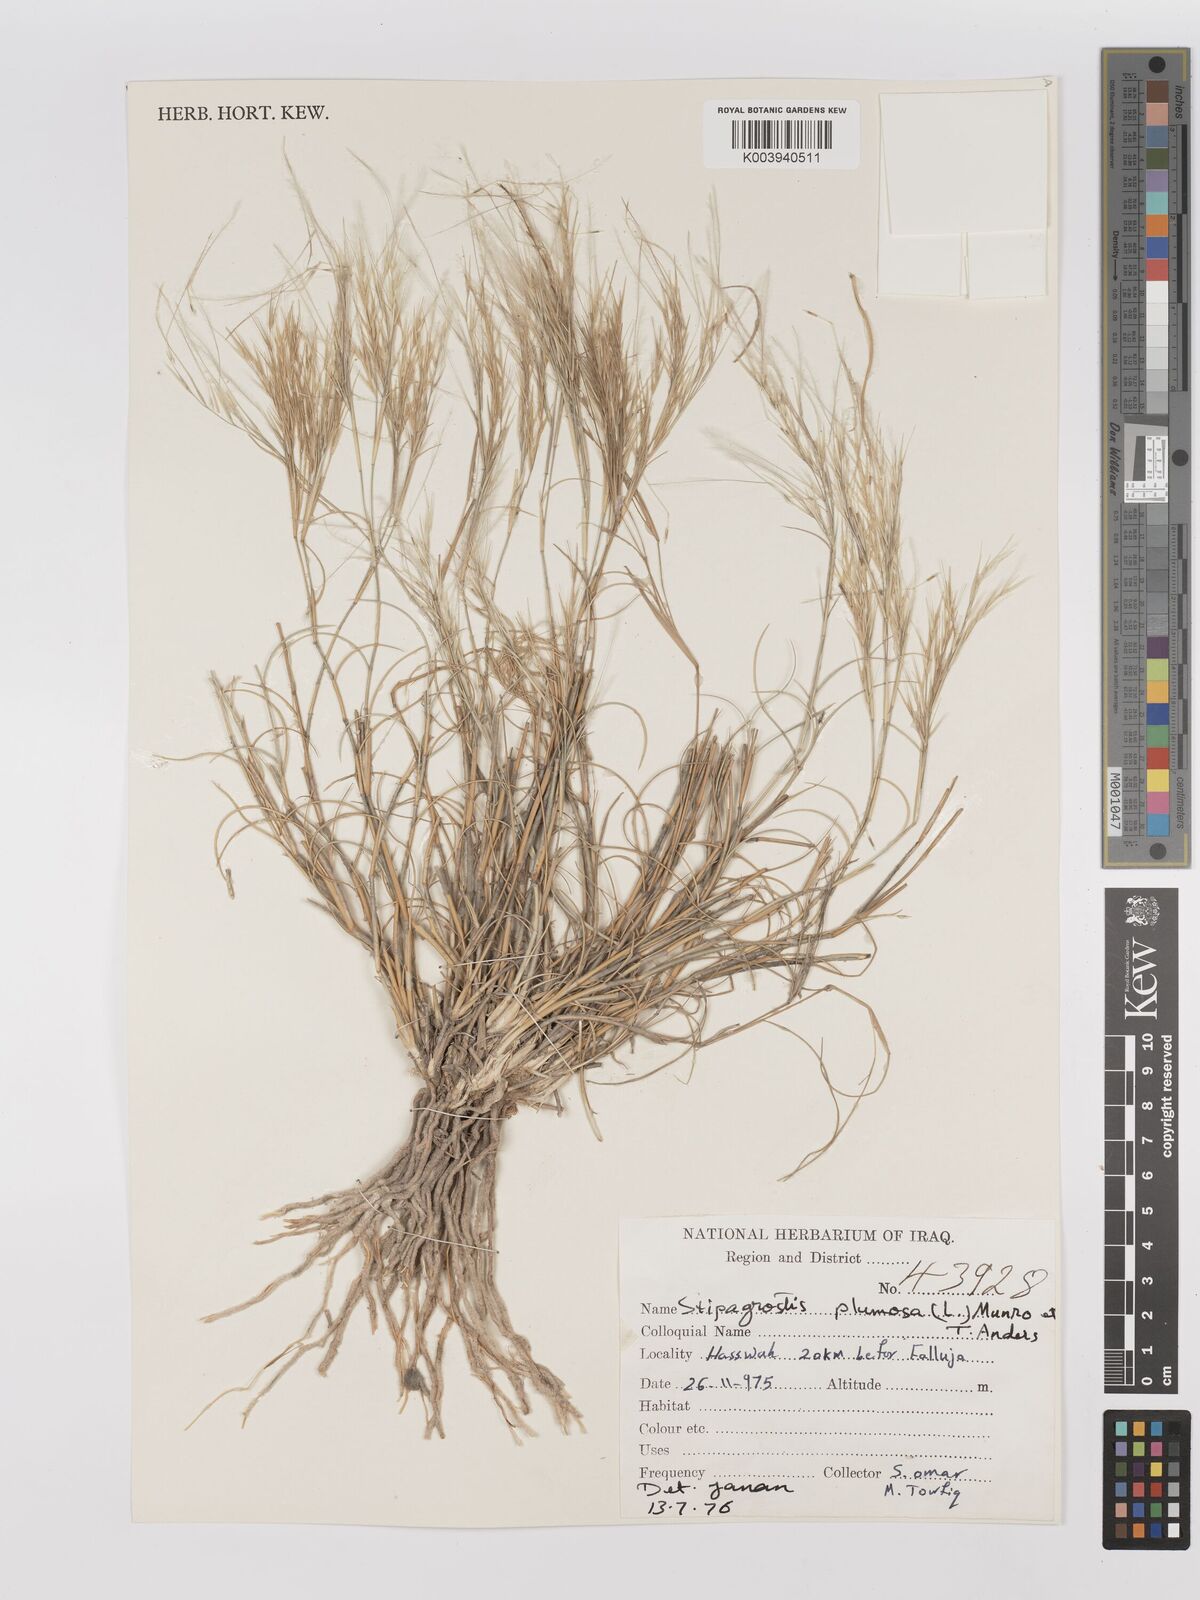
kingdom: Plantae
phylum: Tracheophyta
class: Liliopsida
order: Poales
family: Poaceae
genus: Stipagrostis
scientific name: Stipagrostis plumosa
